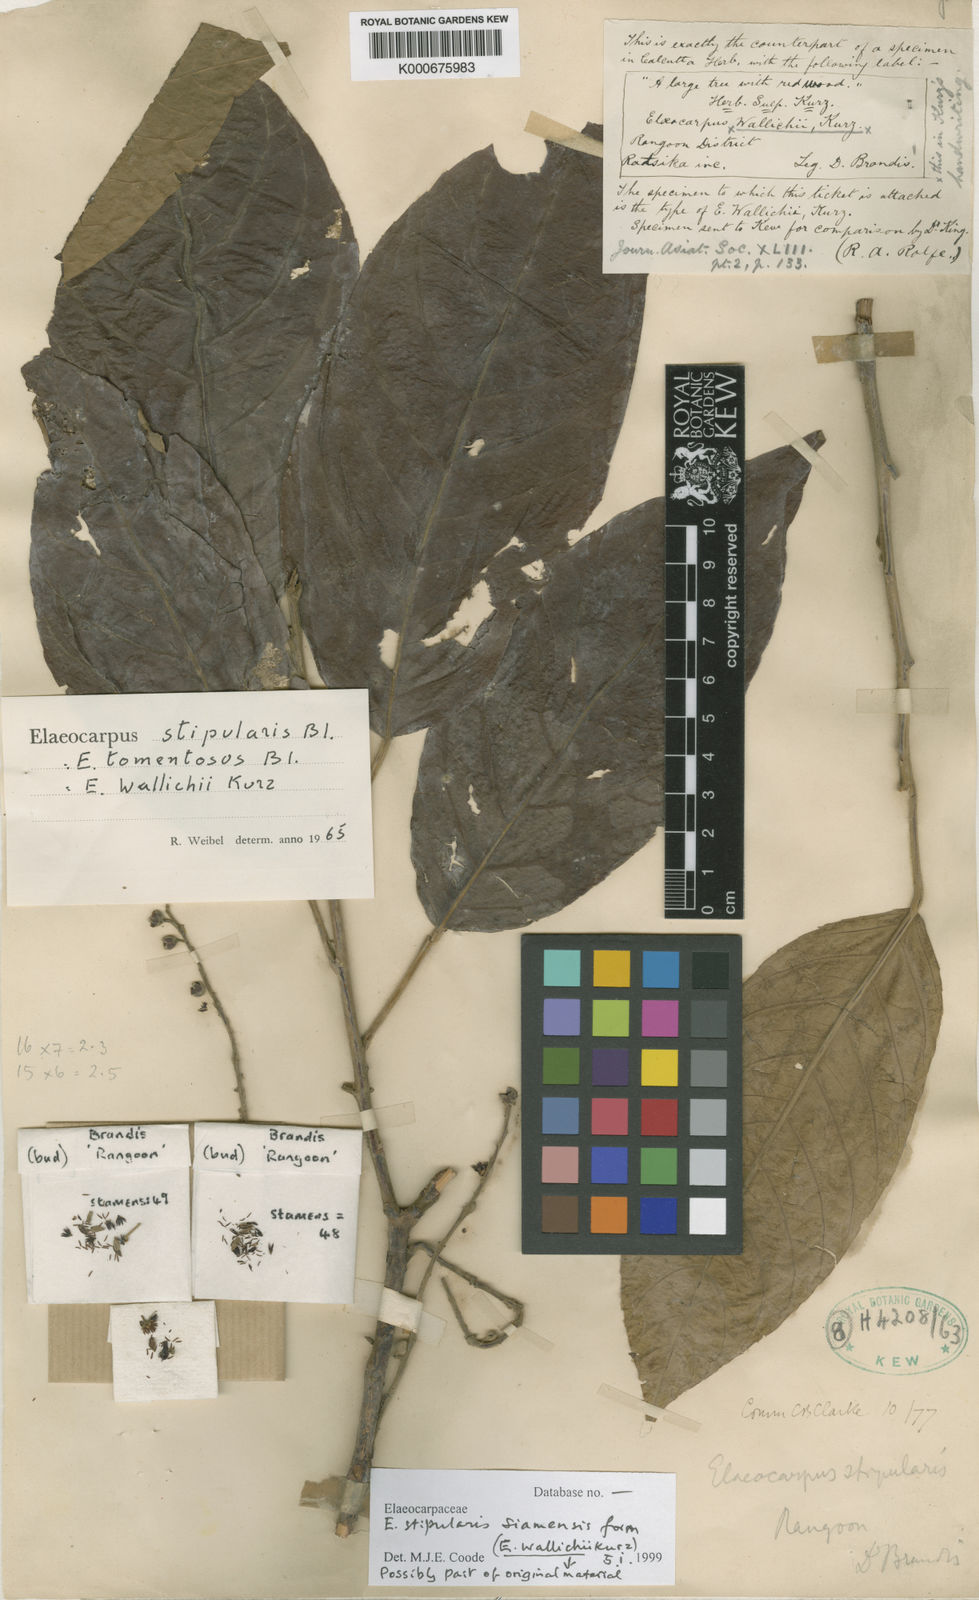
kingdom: Plantae
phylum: Tracheophyta
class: Magnoliopsida
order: Oxalidales
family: Elaeocarpaceae
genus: Elaeocarpus
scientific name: Elaeocarpus stipularis
